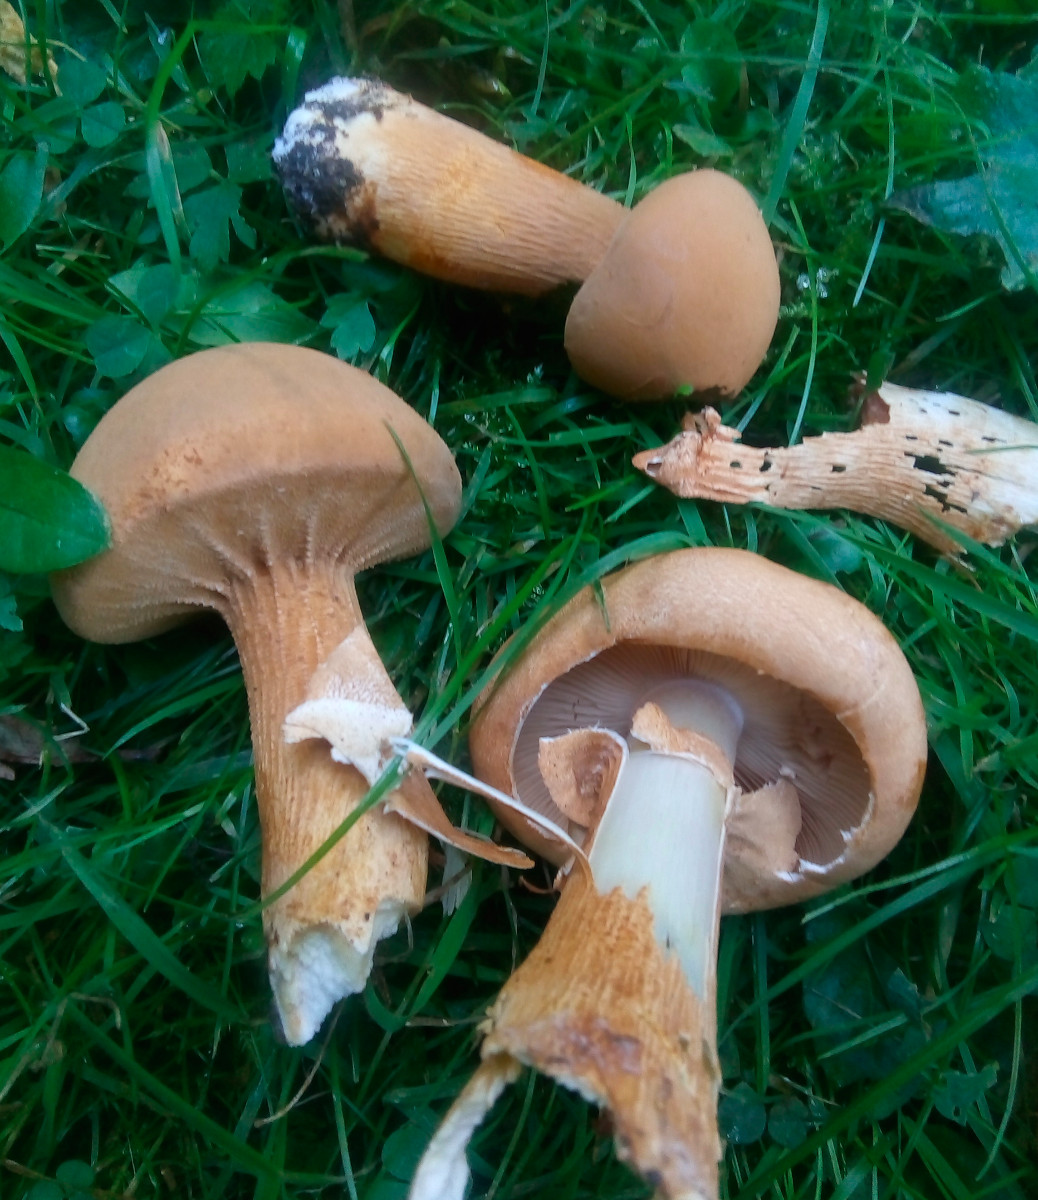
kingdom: Fungi
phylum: Basidiomycota
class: Agaricomycetes
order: Agaricales
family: Tricholomataceae
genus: Phaeolepiota
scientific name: Phaeolepiota aurea
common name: gyldenhat
